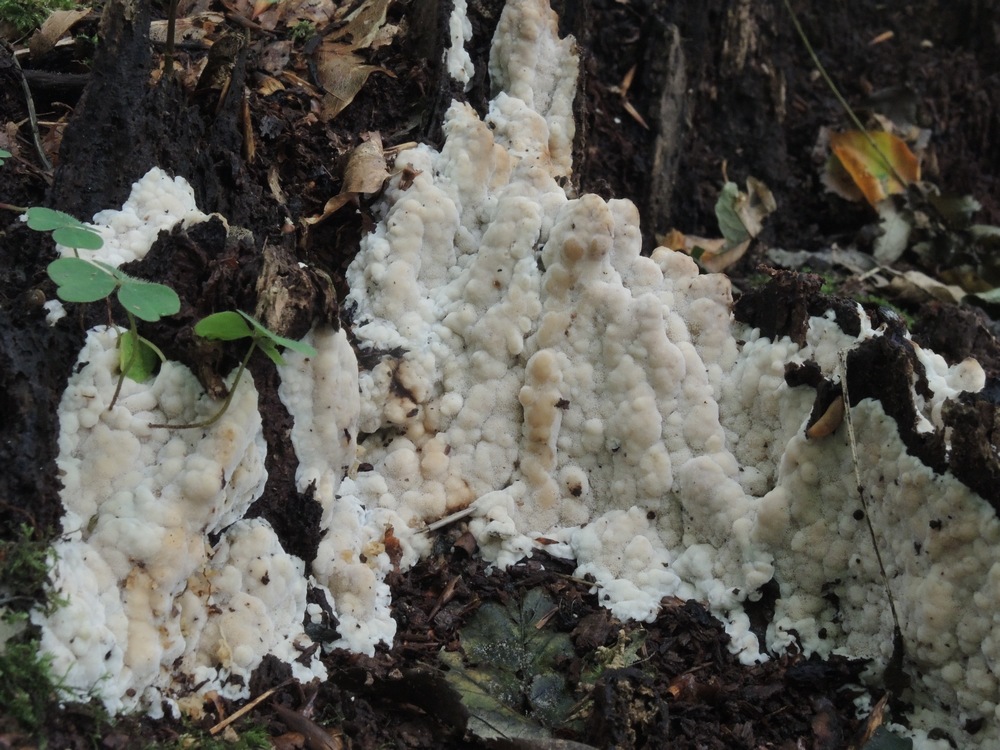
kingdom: Fungi
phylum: Basidiomycota
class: Agaricomycetes
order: Polyporales
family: Meruliaceae
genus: Physisporinus
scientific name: Physisporinus vitreus
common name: mastesvamp
